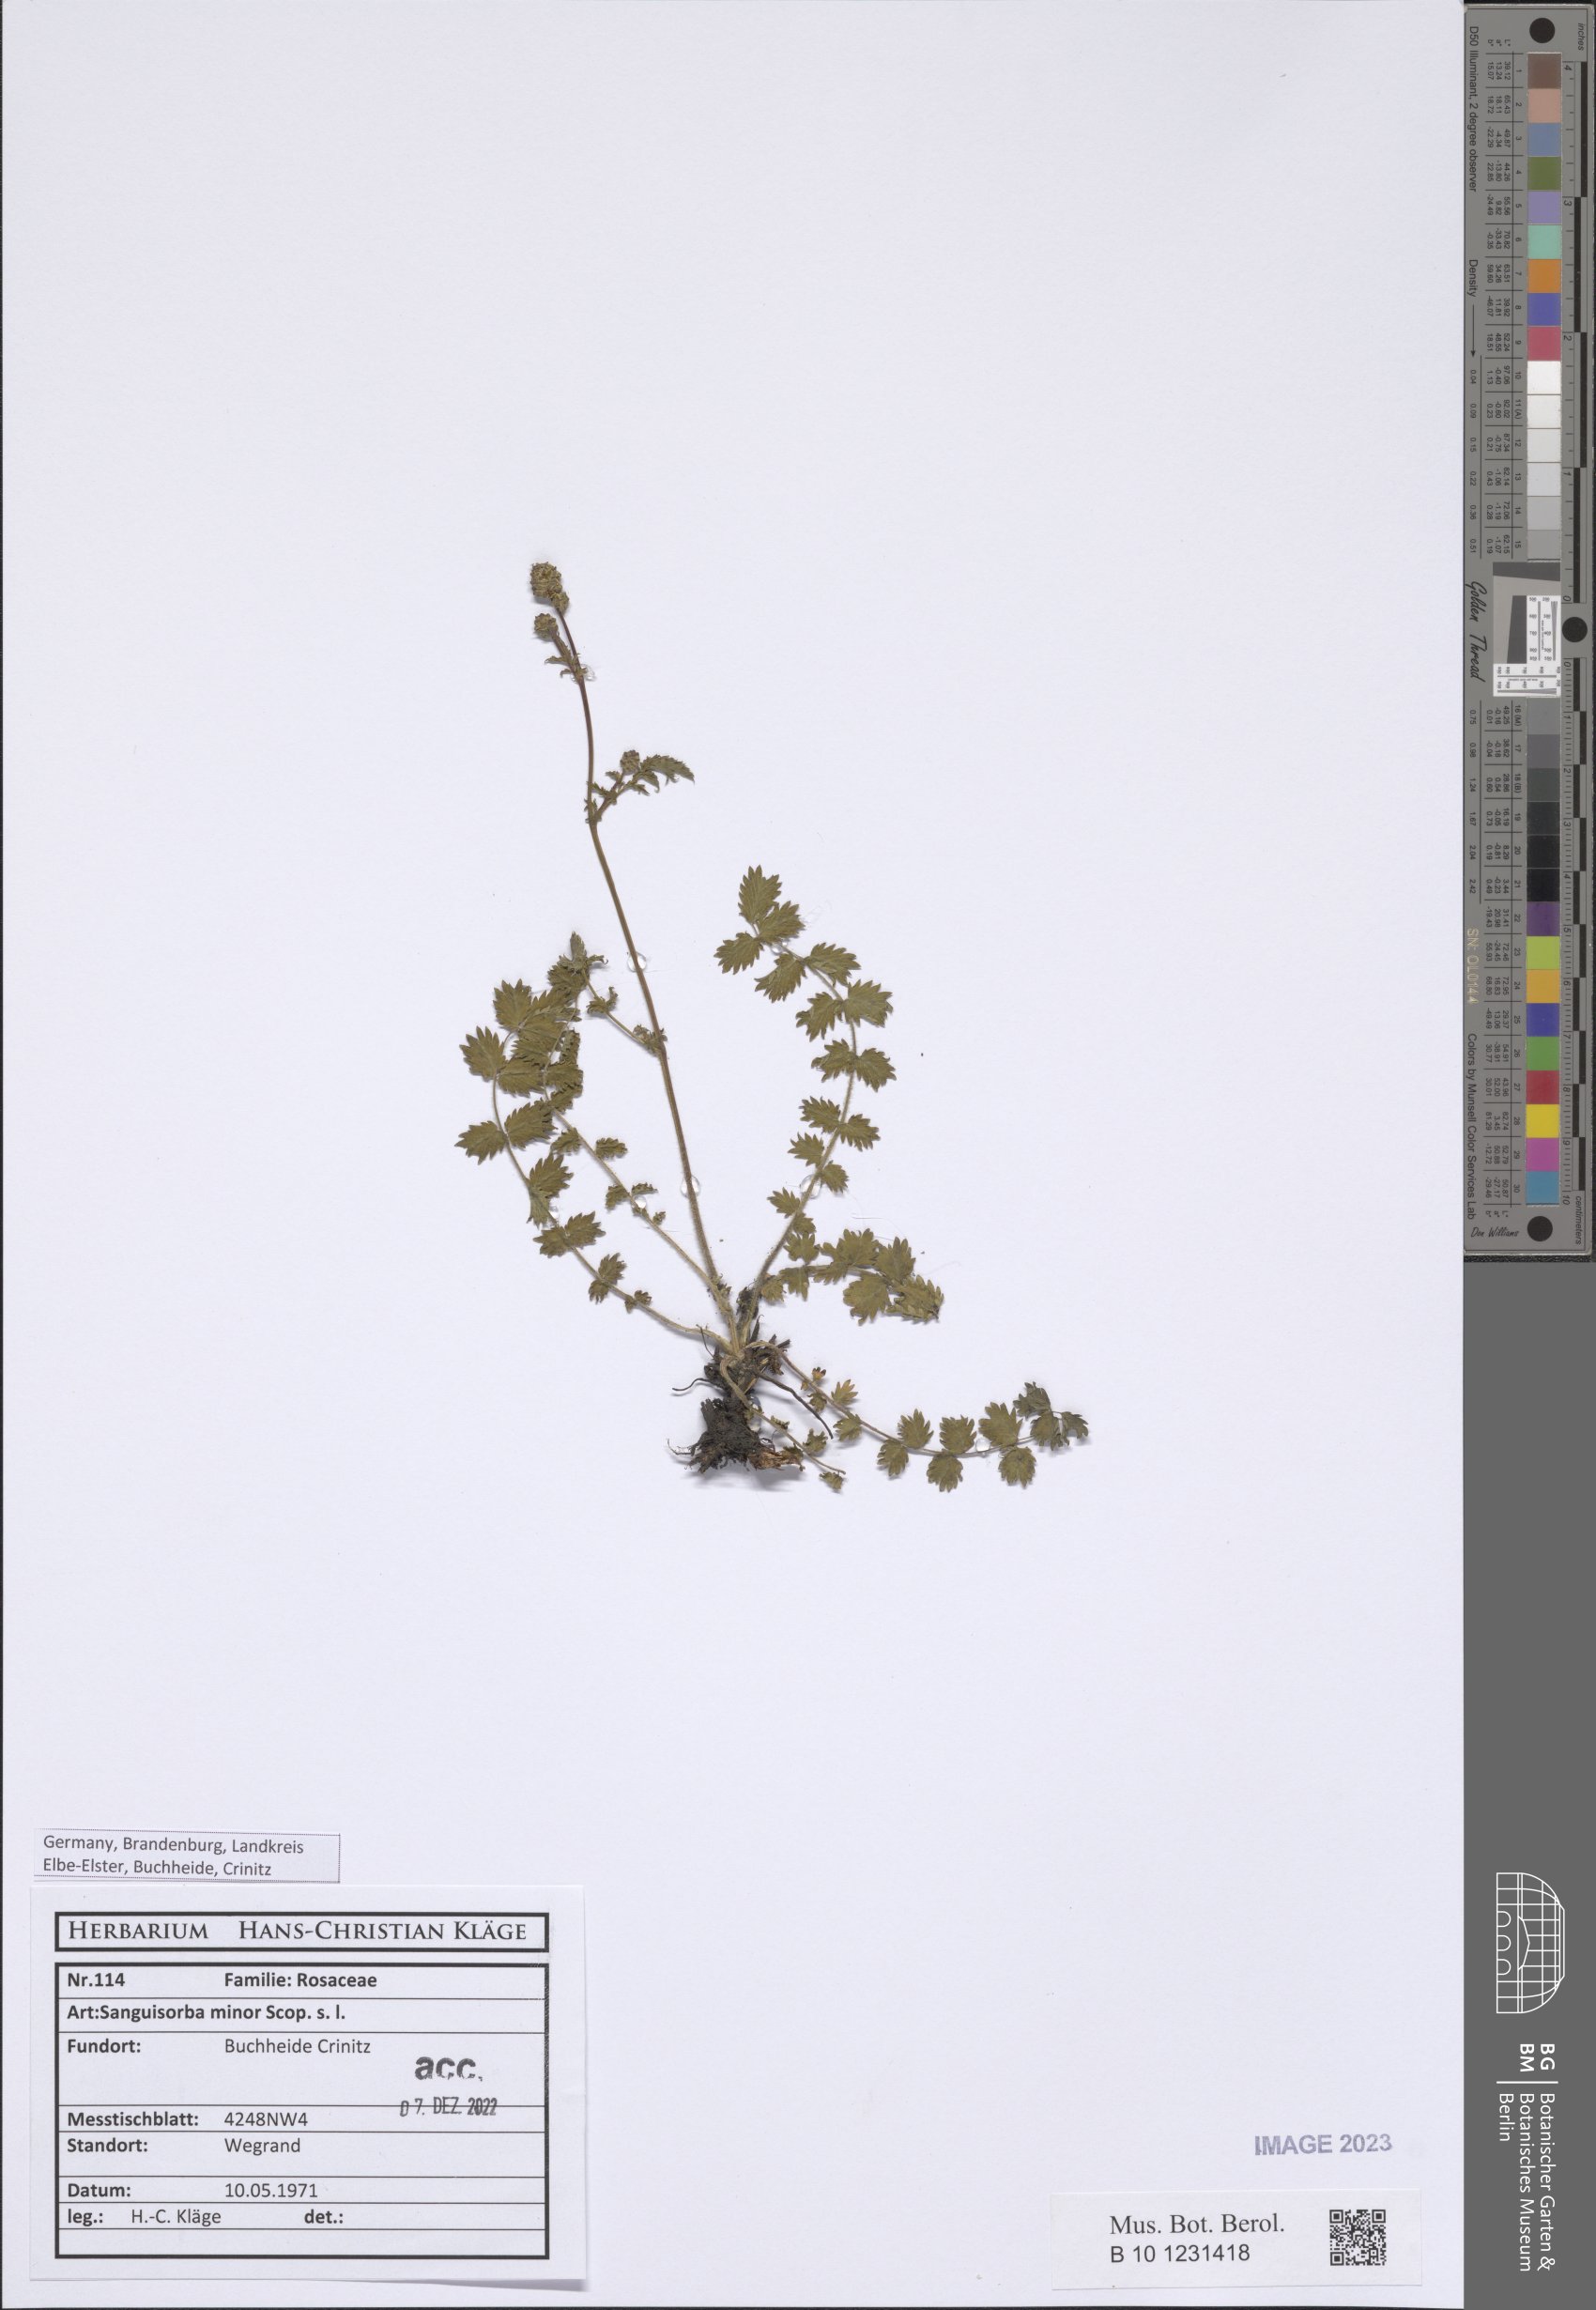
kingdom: Plantae
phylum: Tracheophyta
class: Magnoliopsida
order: Rosales
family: Rosaceae
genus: Poterium
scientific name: Poterium sanguisorba
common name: Salad burnet
